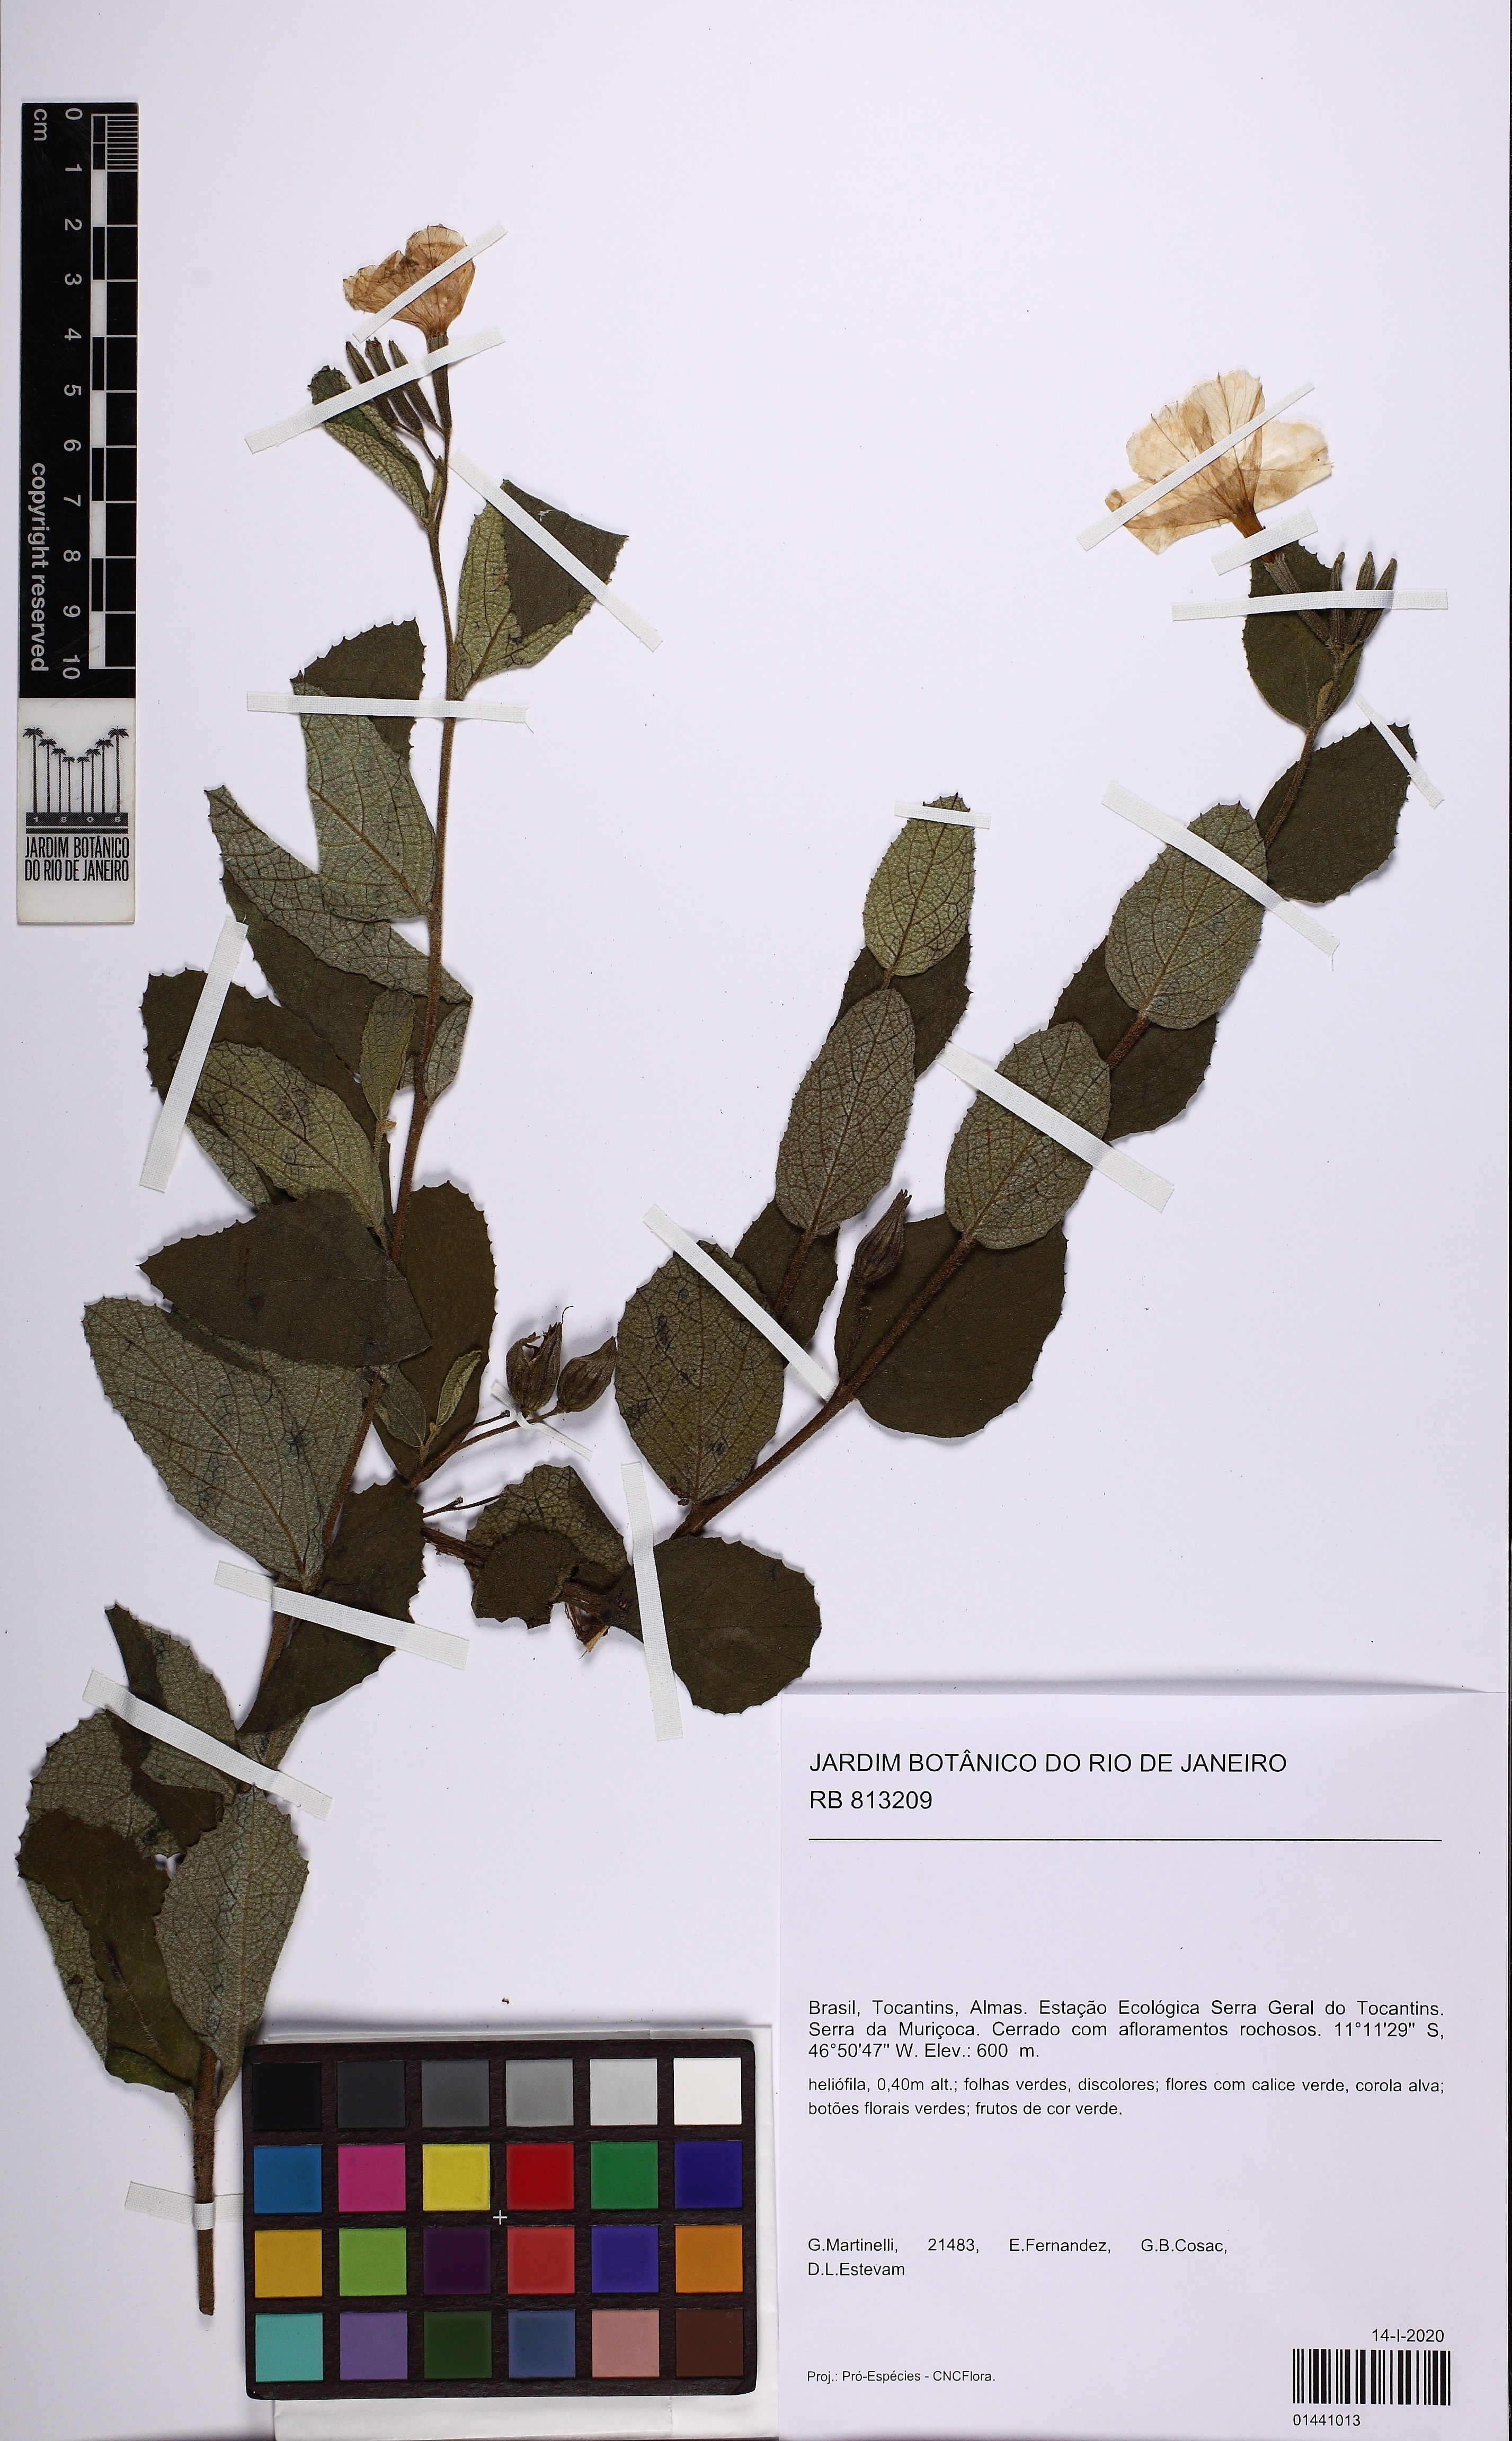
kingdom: Plantae
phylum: Tracheophyta
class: Magnoliopsida
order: Malvales
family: Malvaceae
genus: Helicteres
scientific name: Helicteres
